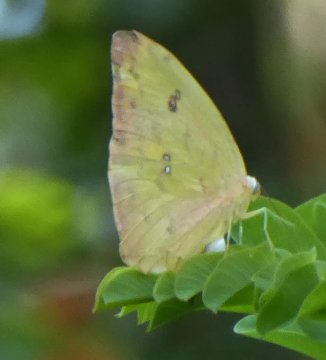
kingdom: Animalia
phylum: Arthropoda
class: Insecta
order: Lepidoptera
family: Pieridae
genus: Phoebis
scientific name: Phoebis philea
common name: Orange-barred Sulphur
